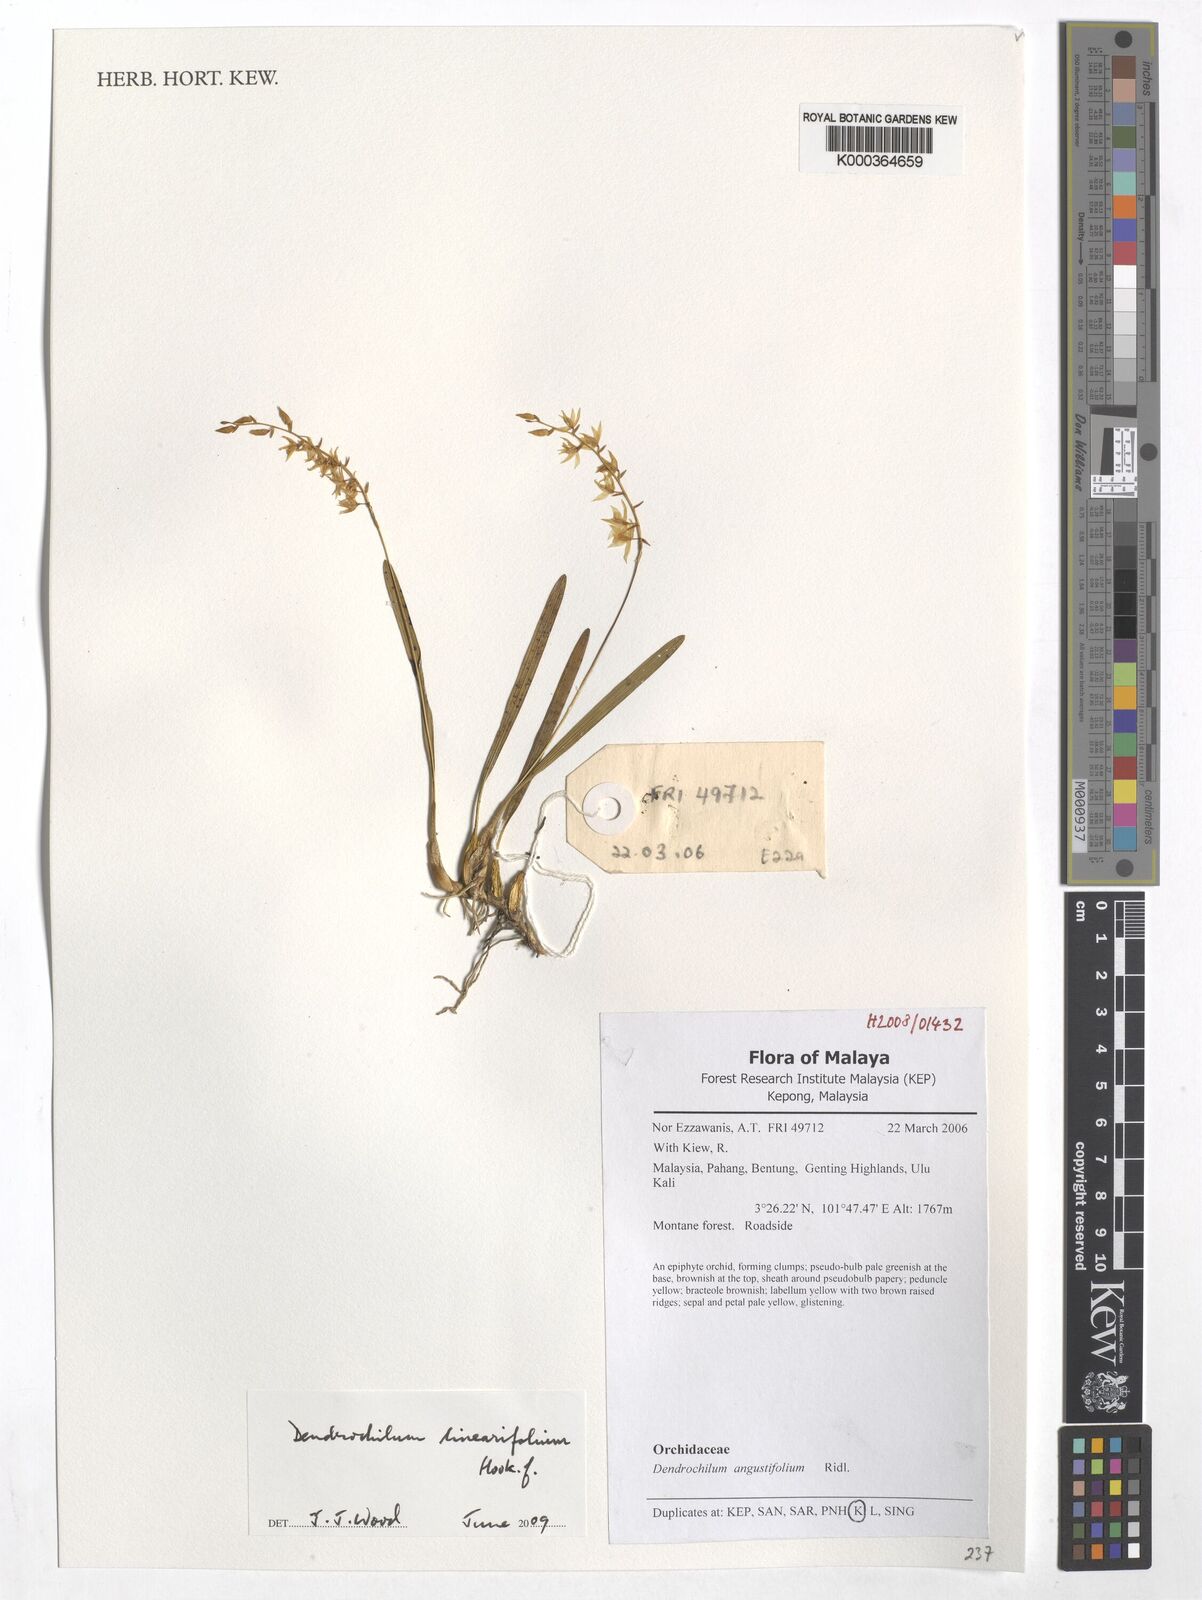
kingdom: Plantae
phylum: Tracheophyta
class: Liliopsida
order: Asparagales
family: Orchidaceae
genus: Coelogyne
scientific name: Coelogyne xanthobulbon
